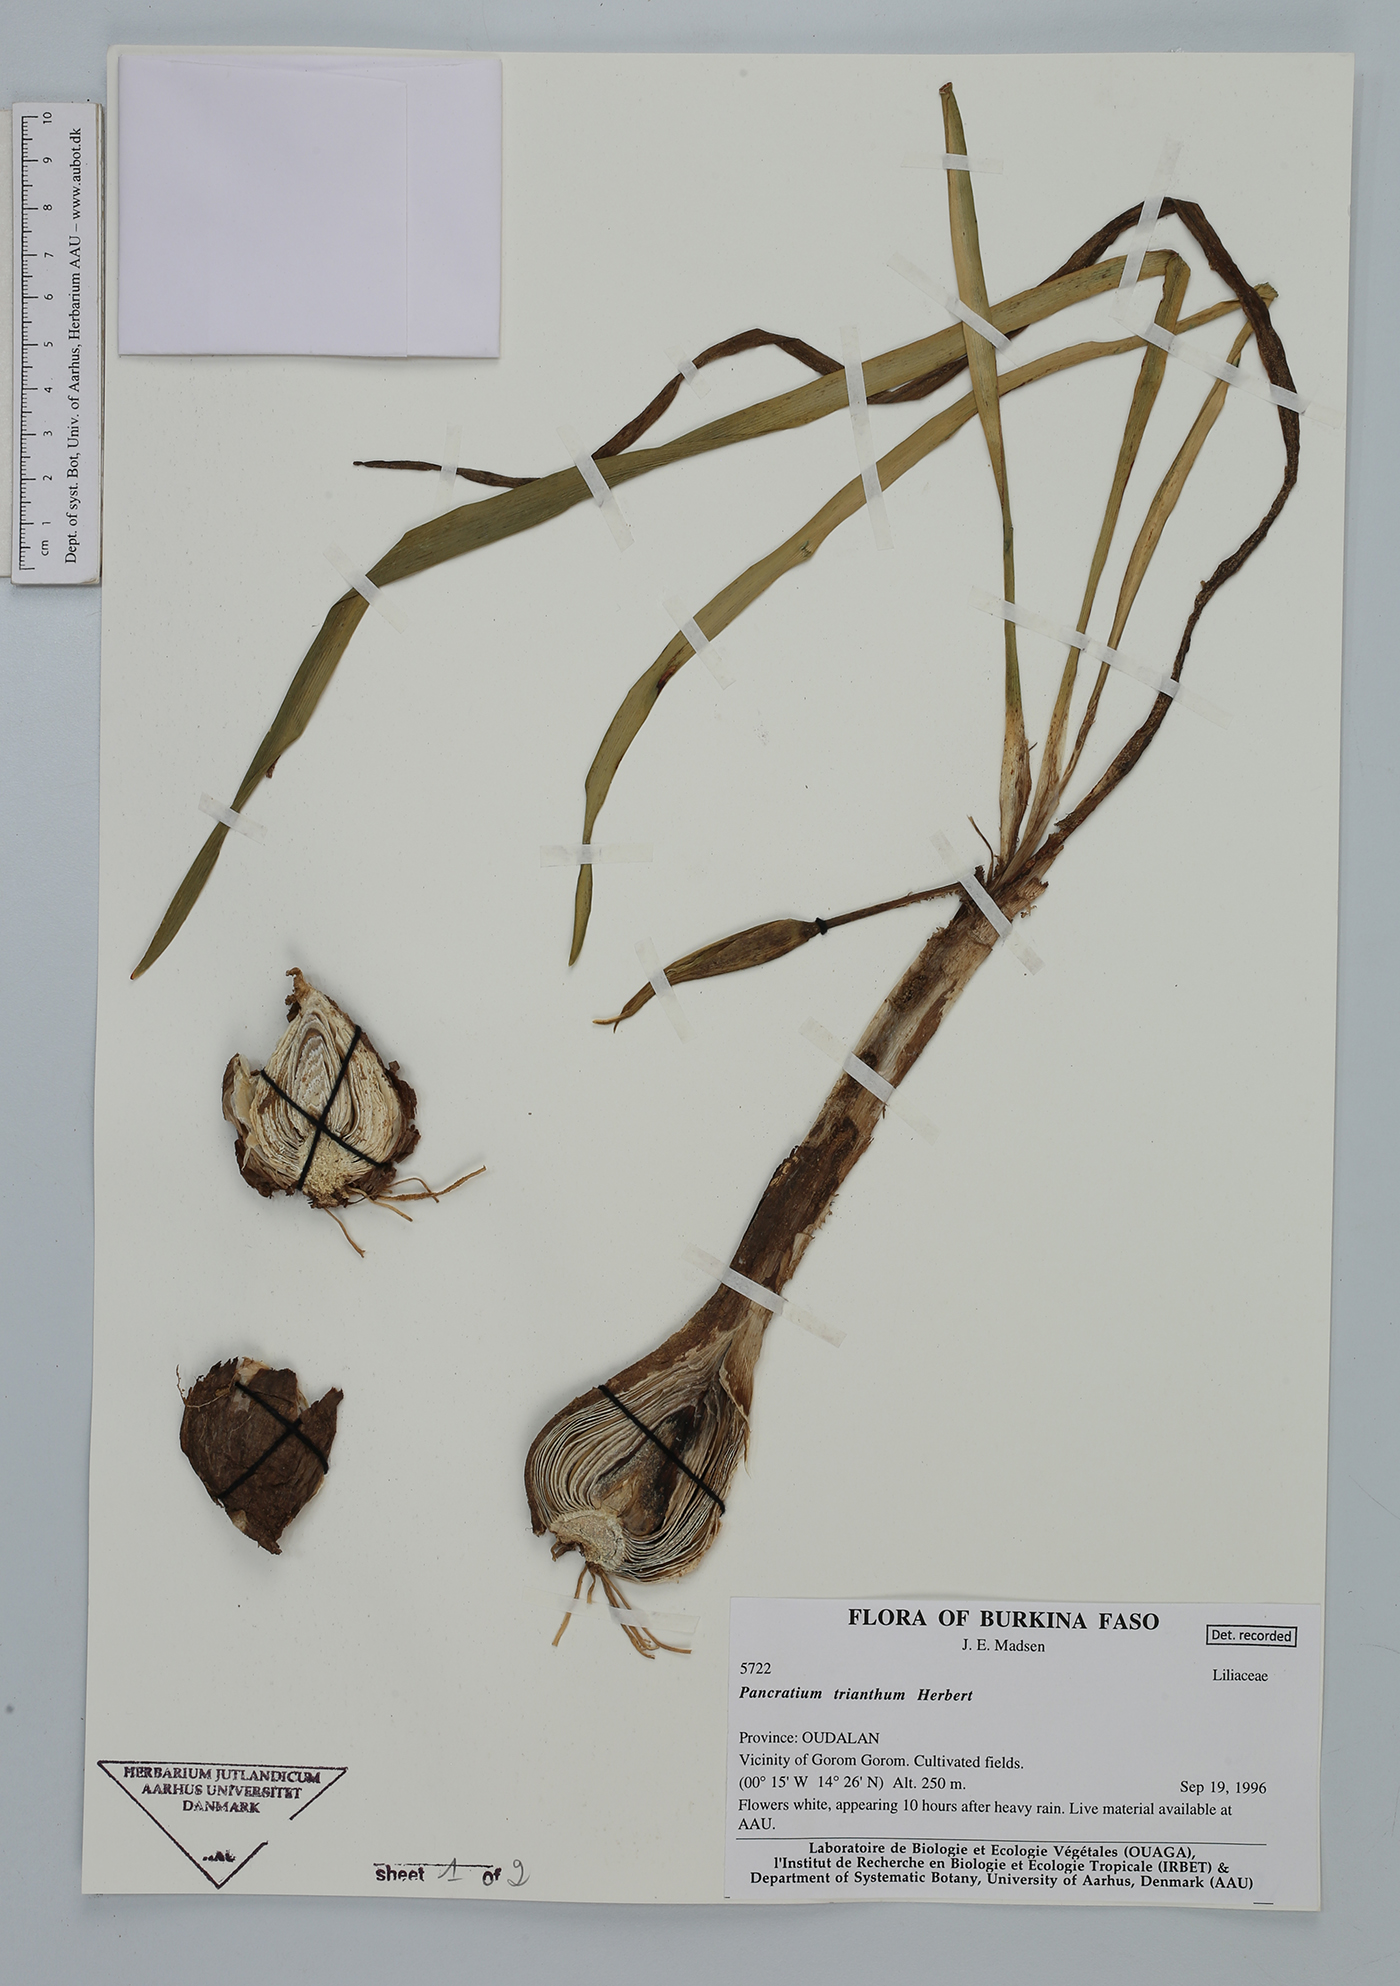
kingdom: Plantae
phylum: Tracheophyta
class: Liliopsida
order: Asparagales
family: Amaryllidaceae
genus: Pancratium
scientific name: Pancratium trianthum
